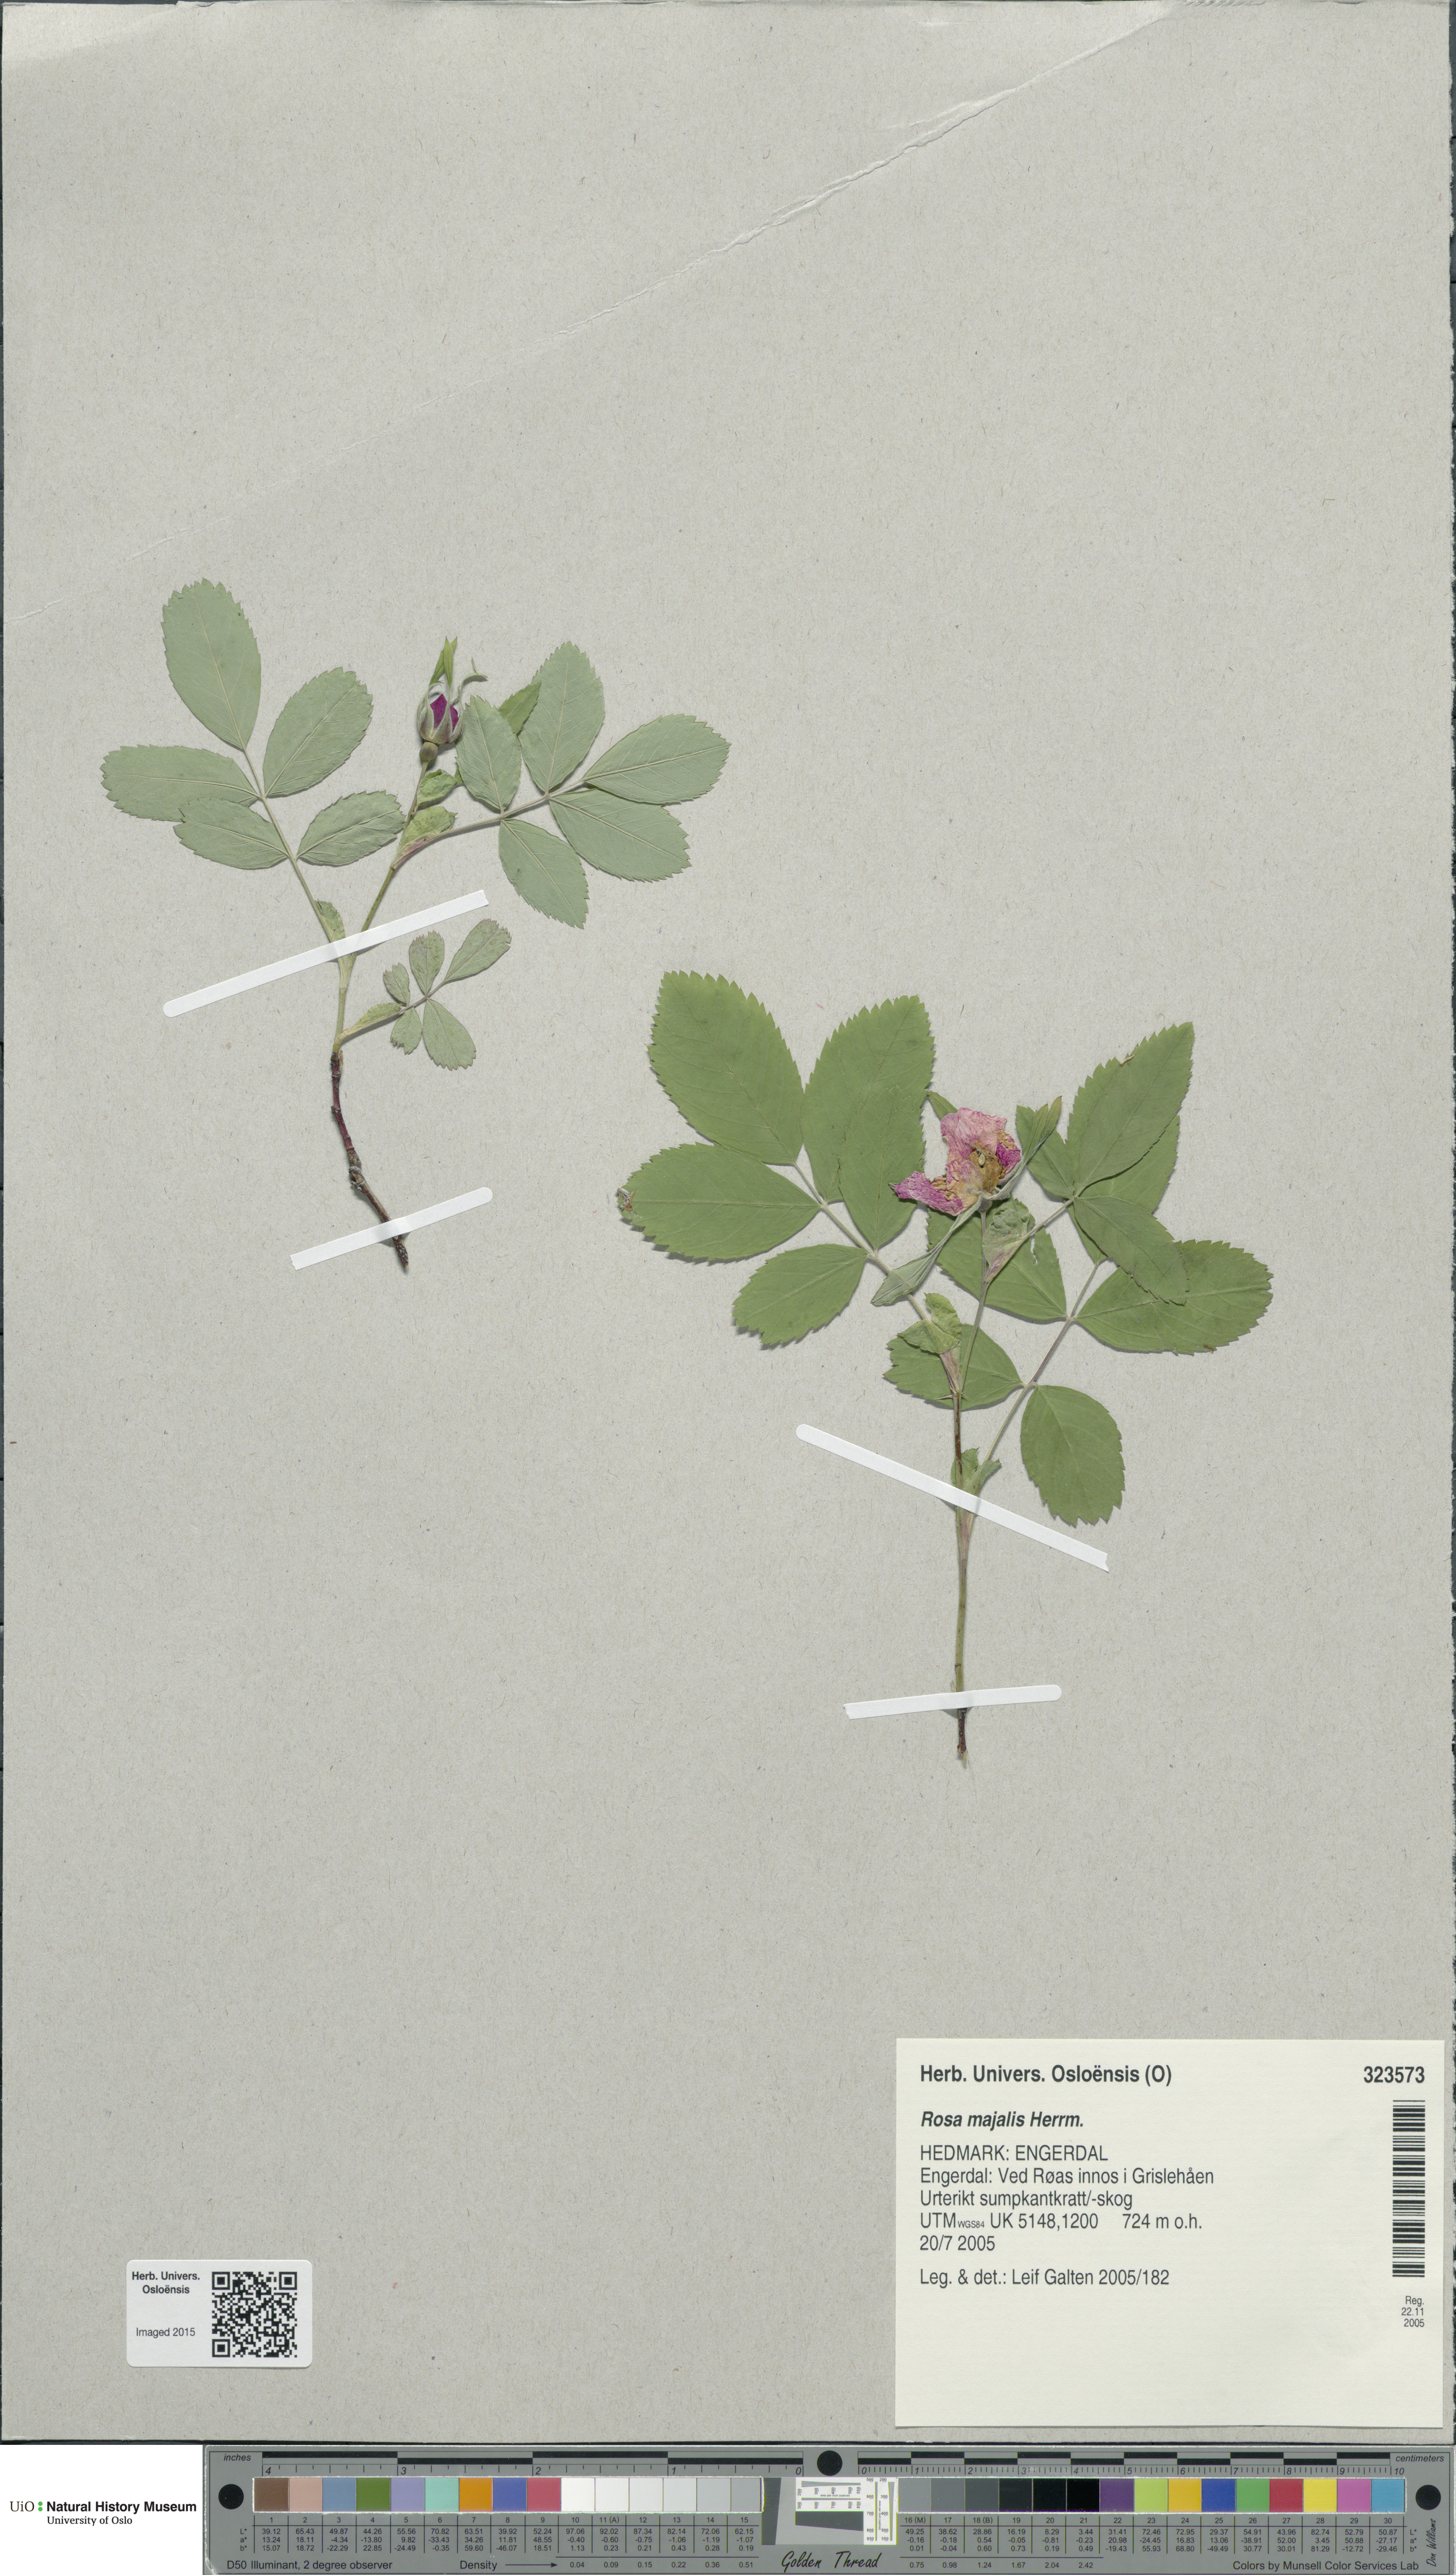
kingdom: Plantae
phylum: Tracheophyta
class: Magnoliopsida
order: Rosales
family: Rosaceae
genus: Rosa
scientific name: Rosa majalis
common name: Cinnamon rose
